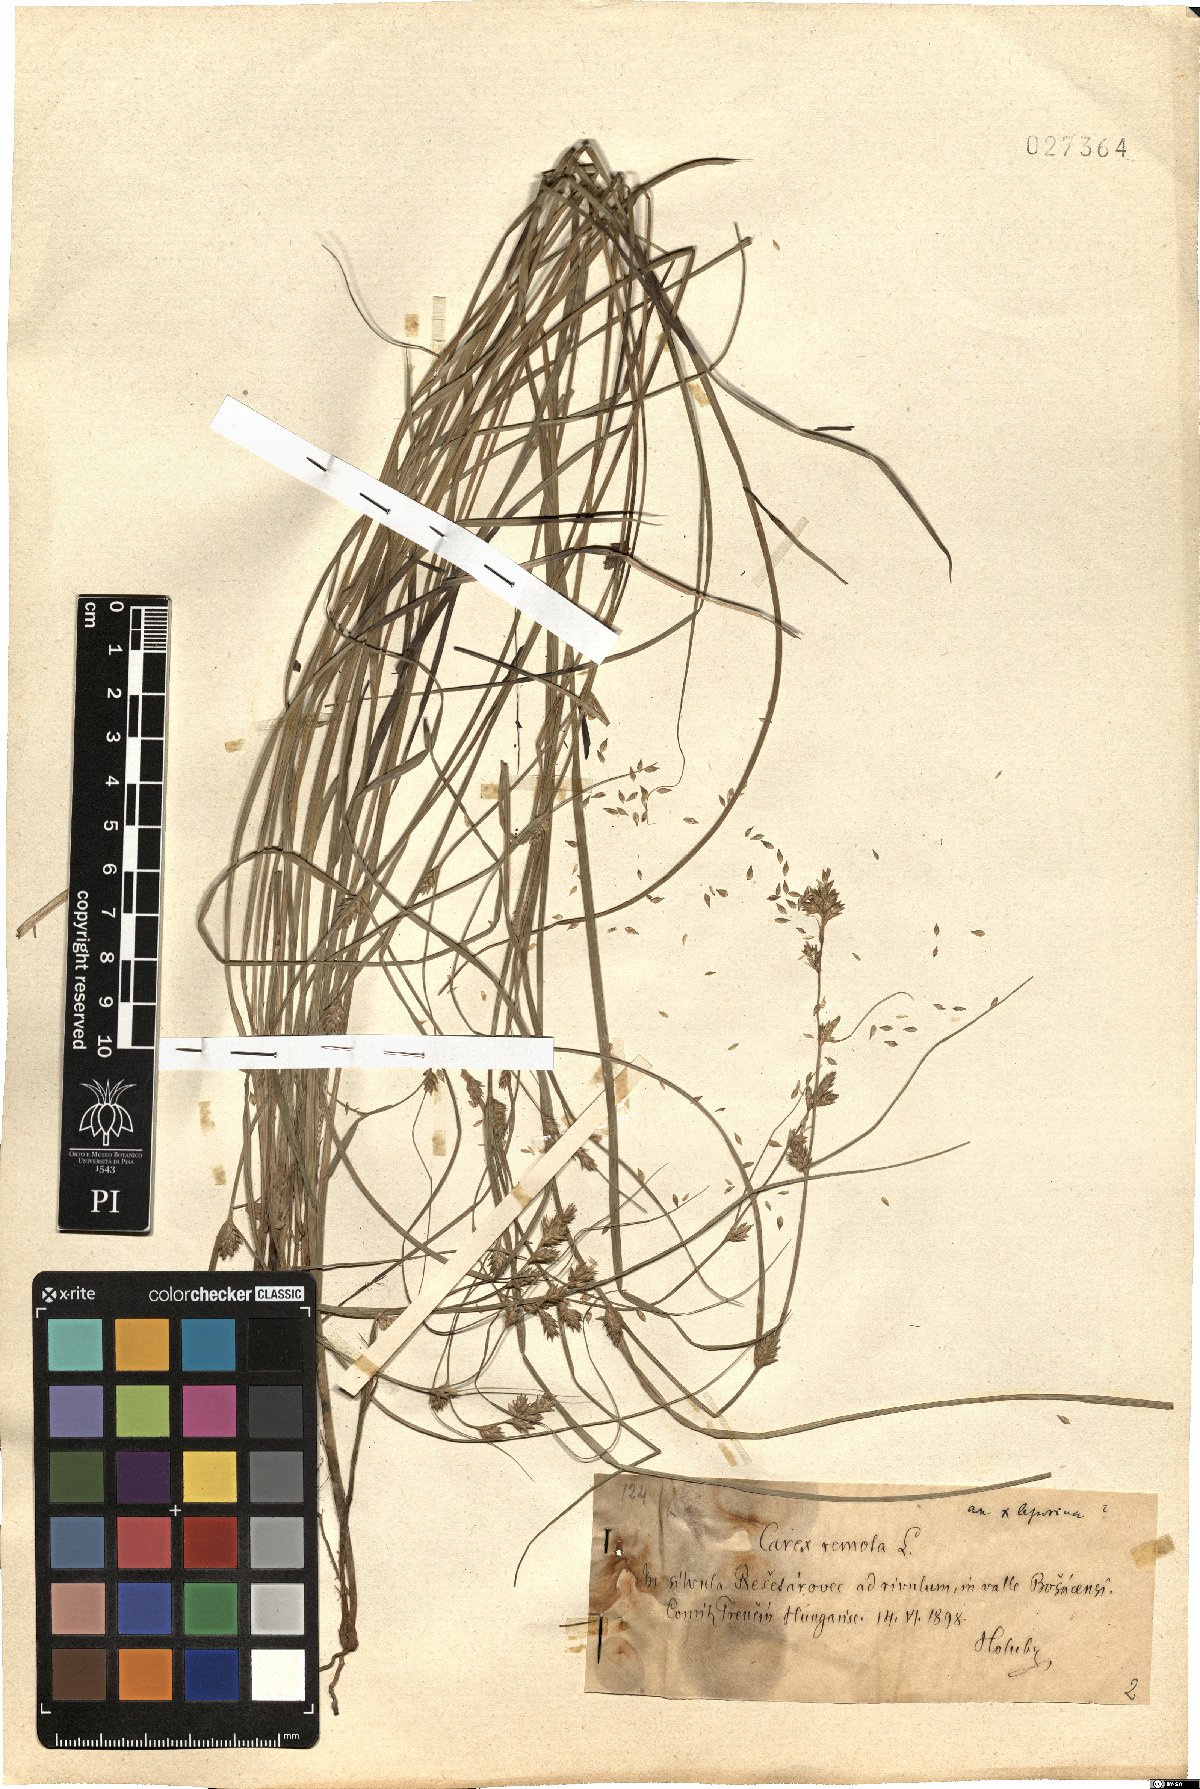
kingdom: Plantae
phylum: Tracheophyta
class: Liliopsida
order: Poales
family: Cyperaceae
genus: Carex
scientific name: Carex remota
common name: Remote sedge
